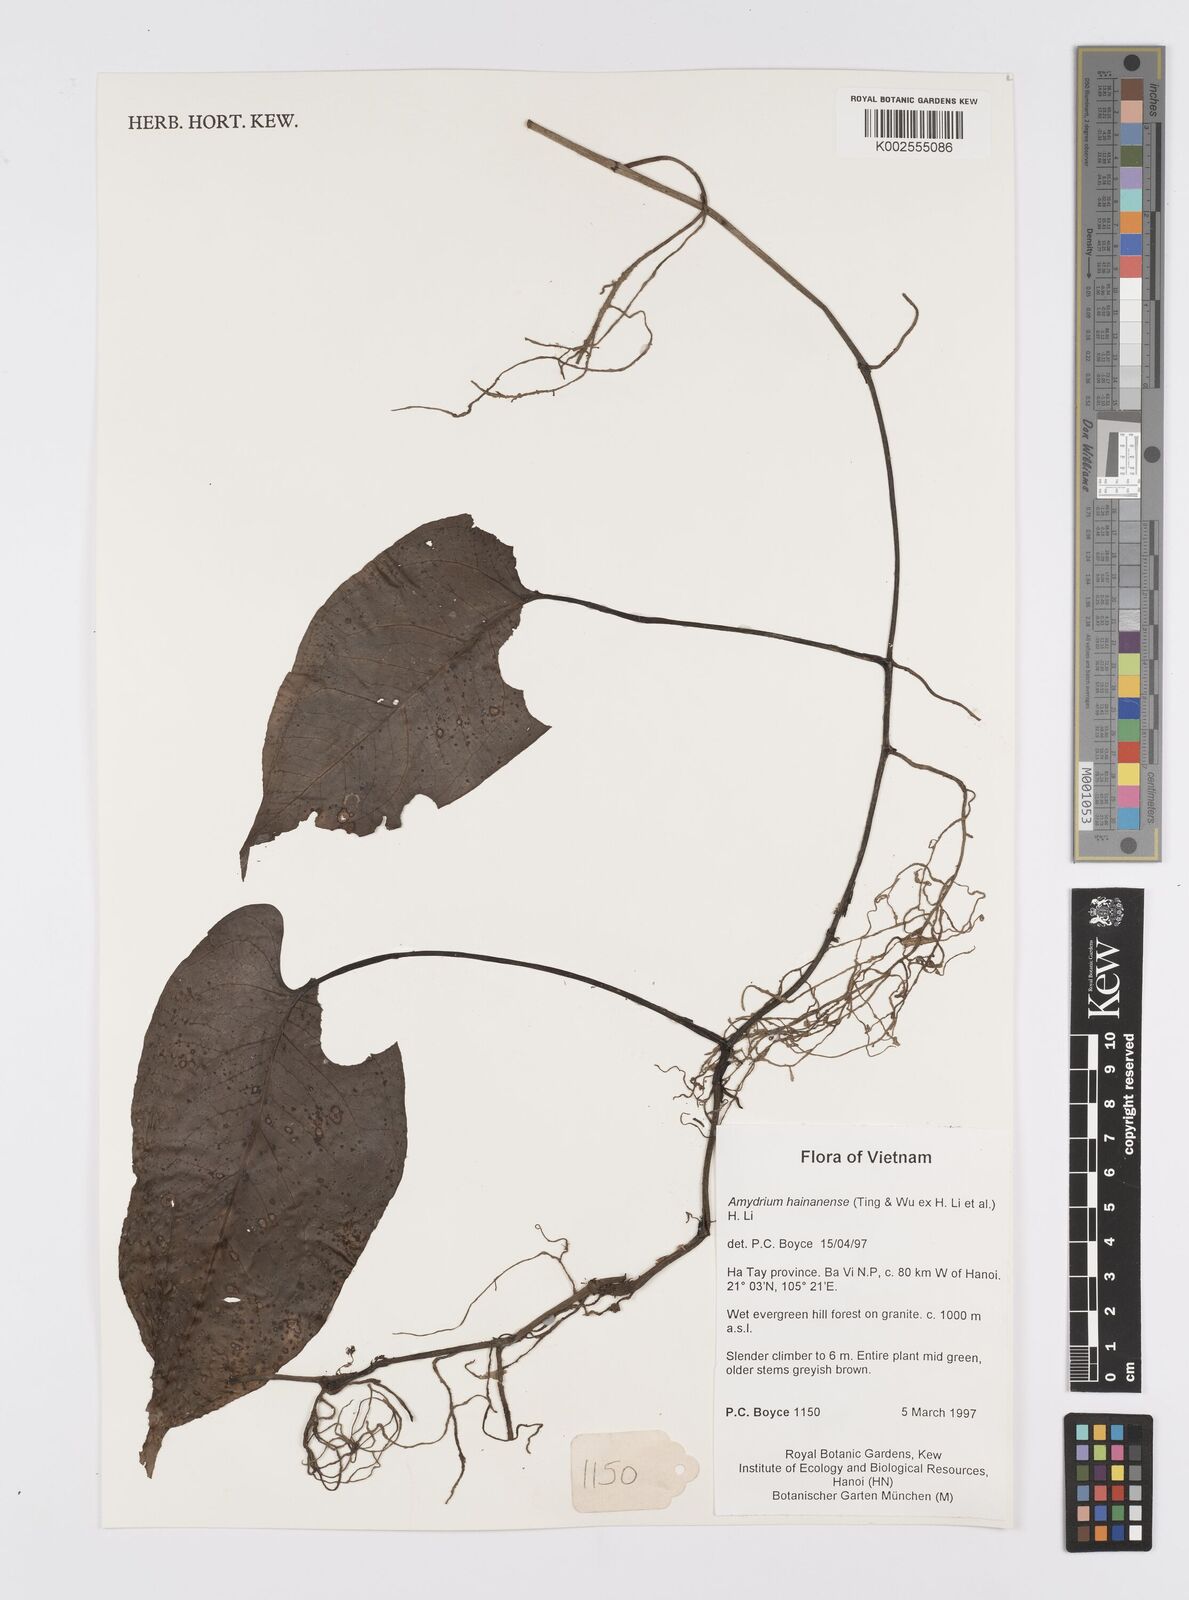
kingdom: Plantae
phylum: Tracheophyta
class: Liliopsida
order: Alismatales
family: Araceae
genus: Amydrium
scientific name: Amydrium hainanense
